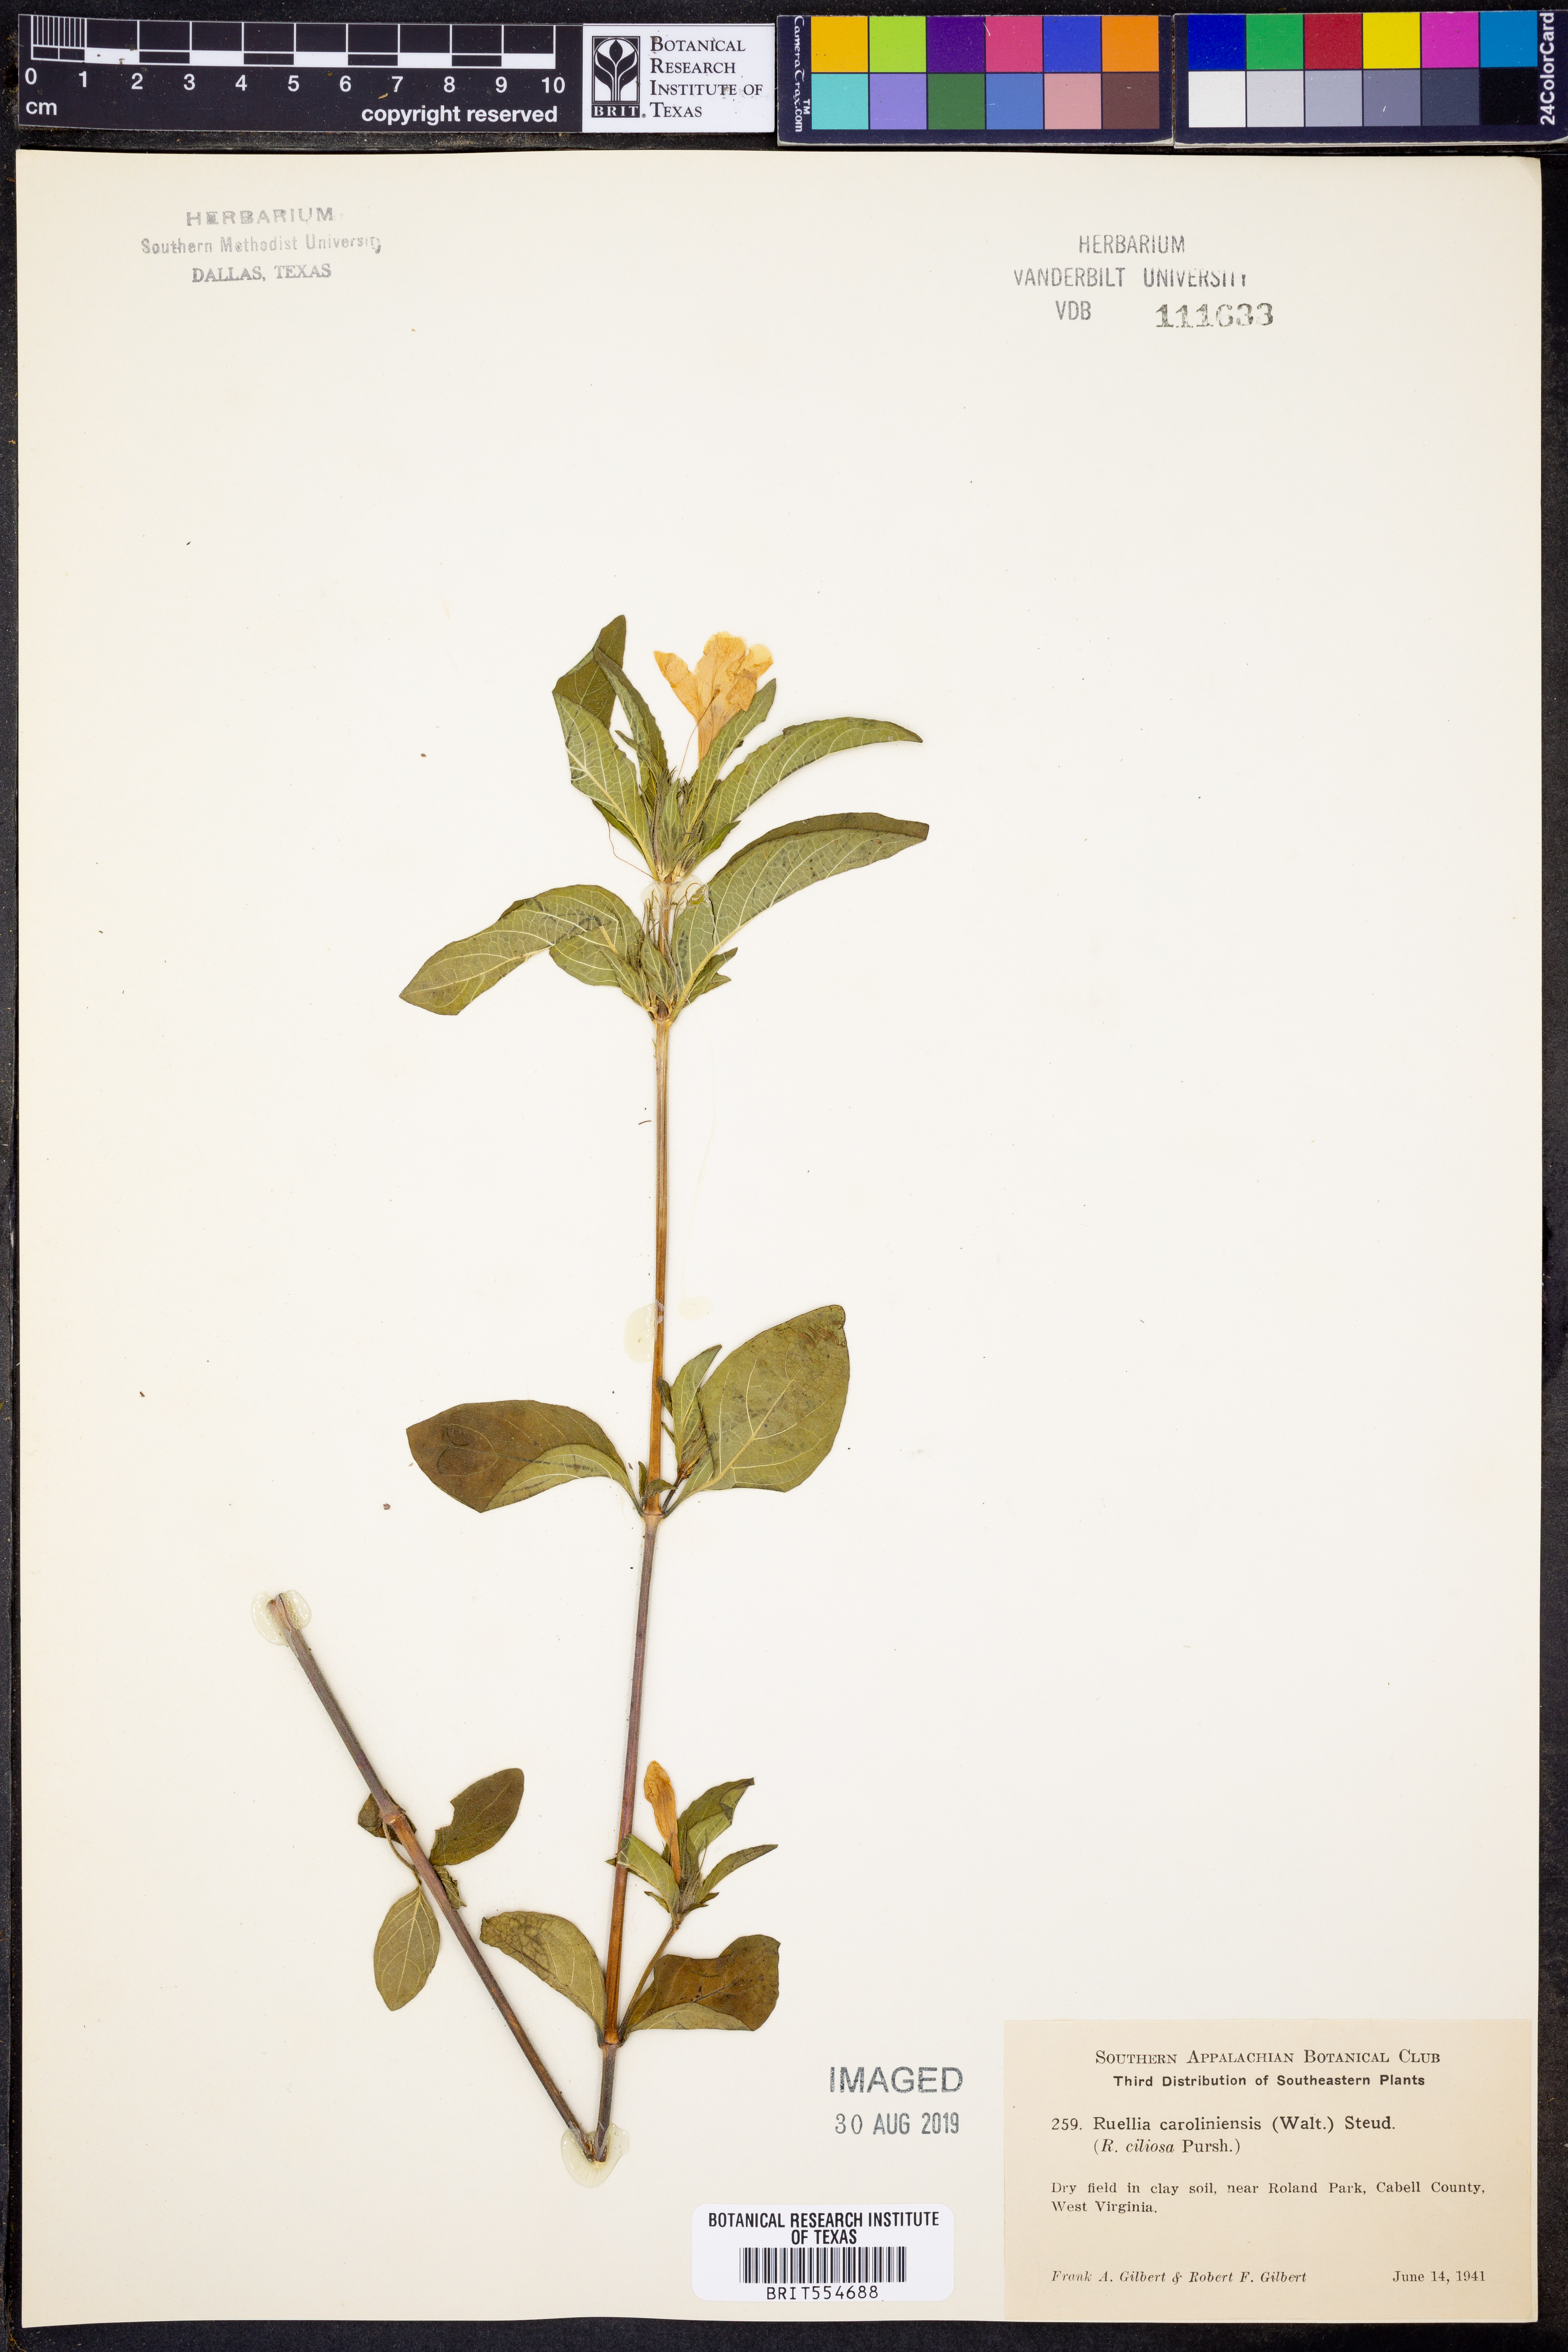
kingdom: Plantae
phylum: Tracheophyta
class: Magnoliopsida
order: Lamiales
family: Acanthaceae
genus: Ruellia
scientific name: Ruellia caroliniensis
